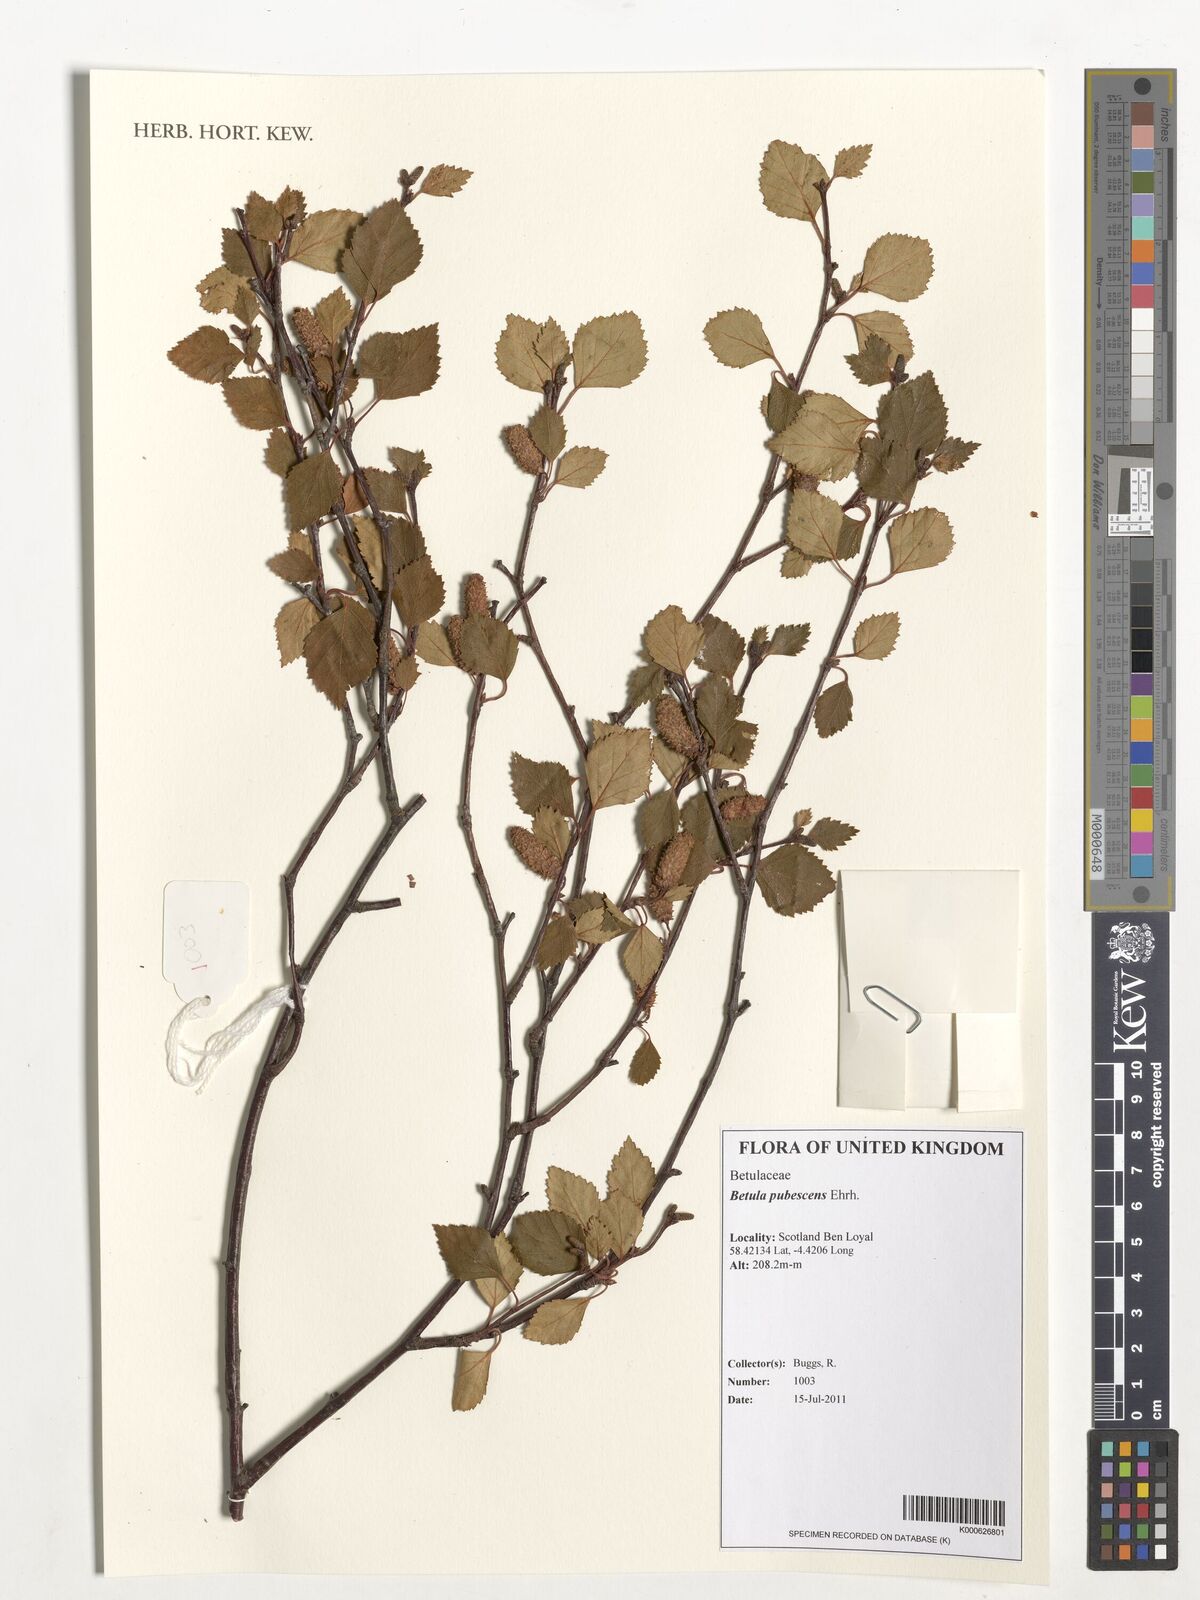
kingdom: Plantae
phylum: Tracheophyta
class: Magnoliopsida
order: Fagales
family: Betulaceae
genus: Betula
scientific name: Betula pubescens
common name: Downy birch
